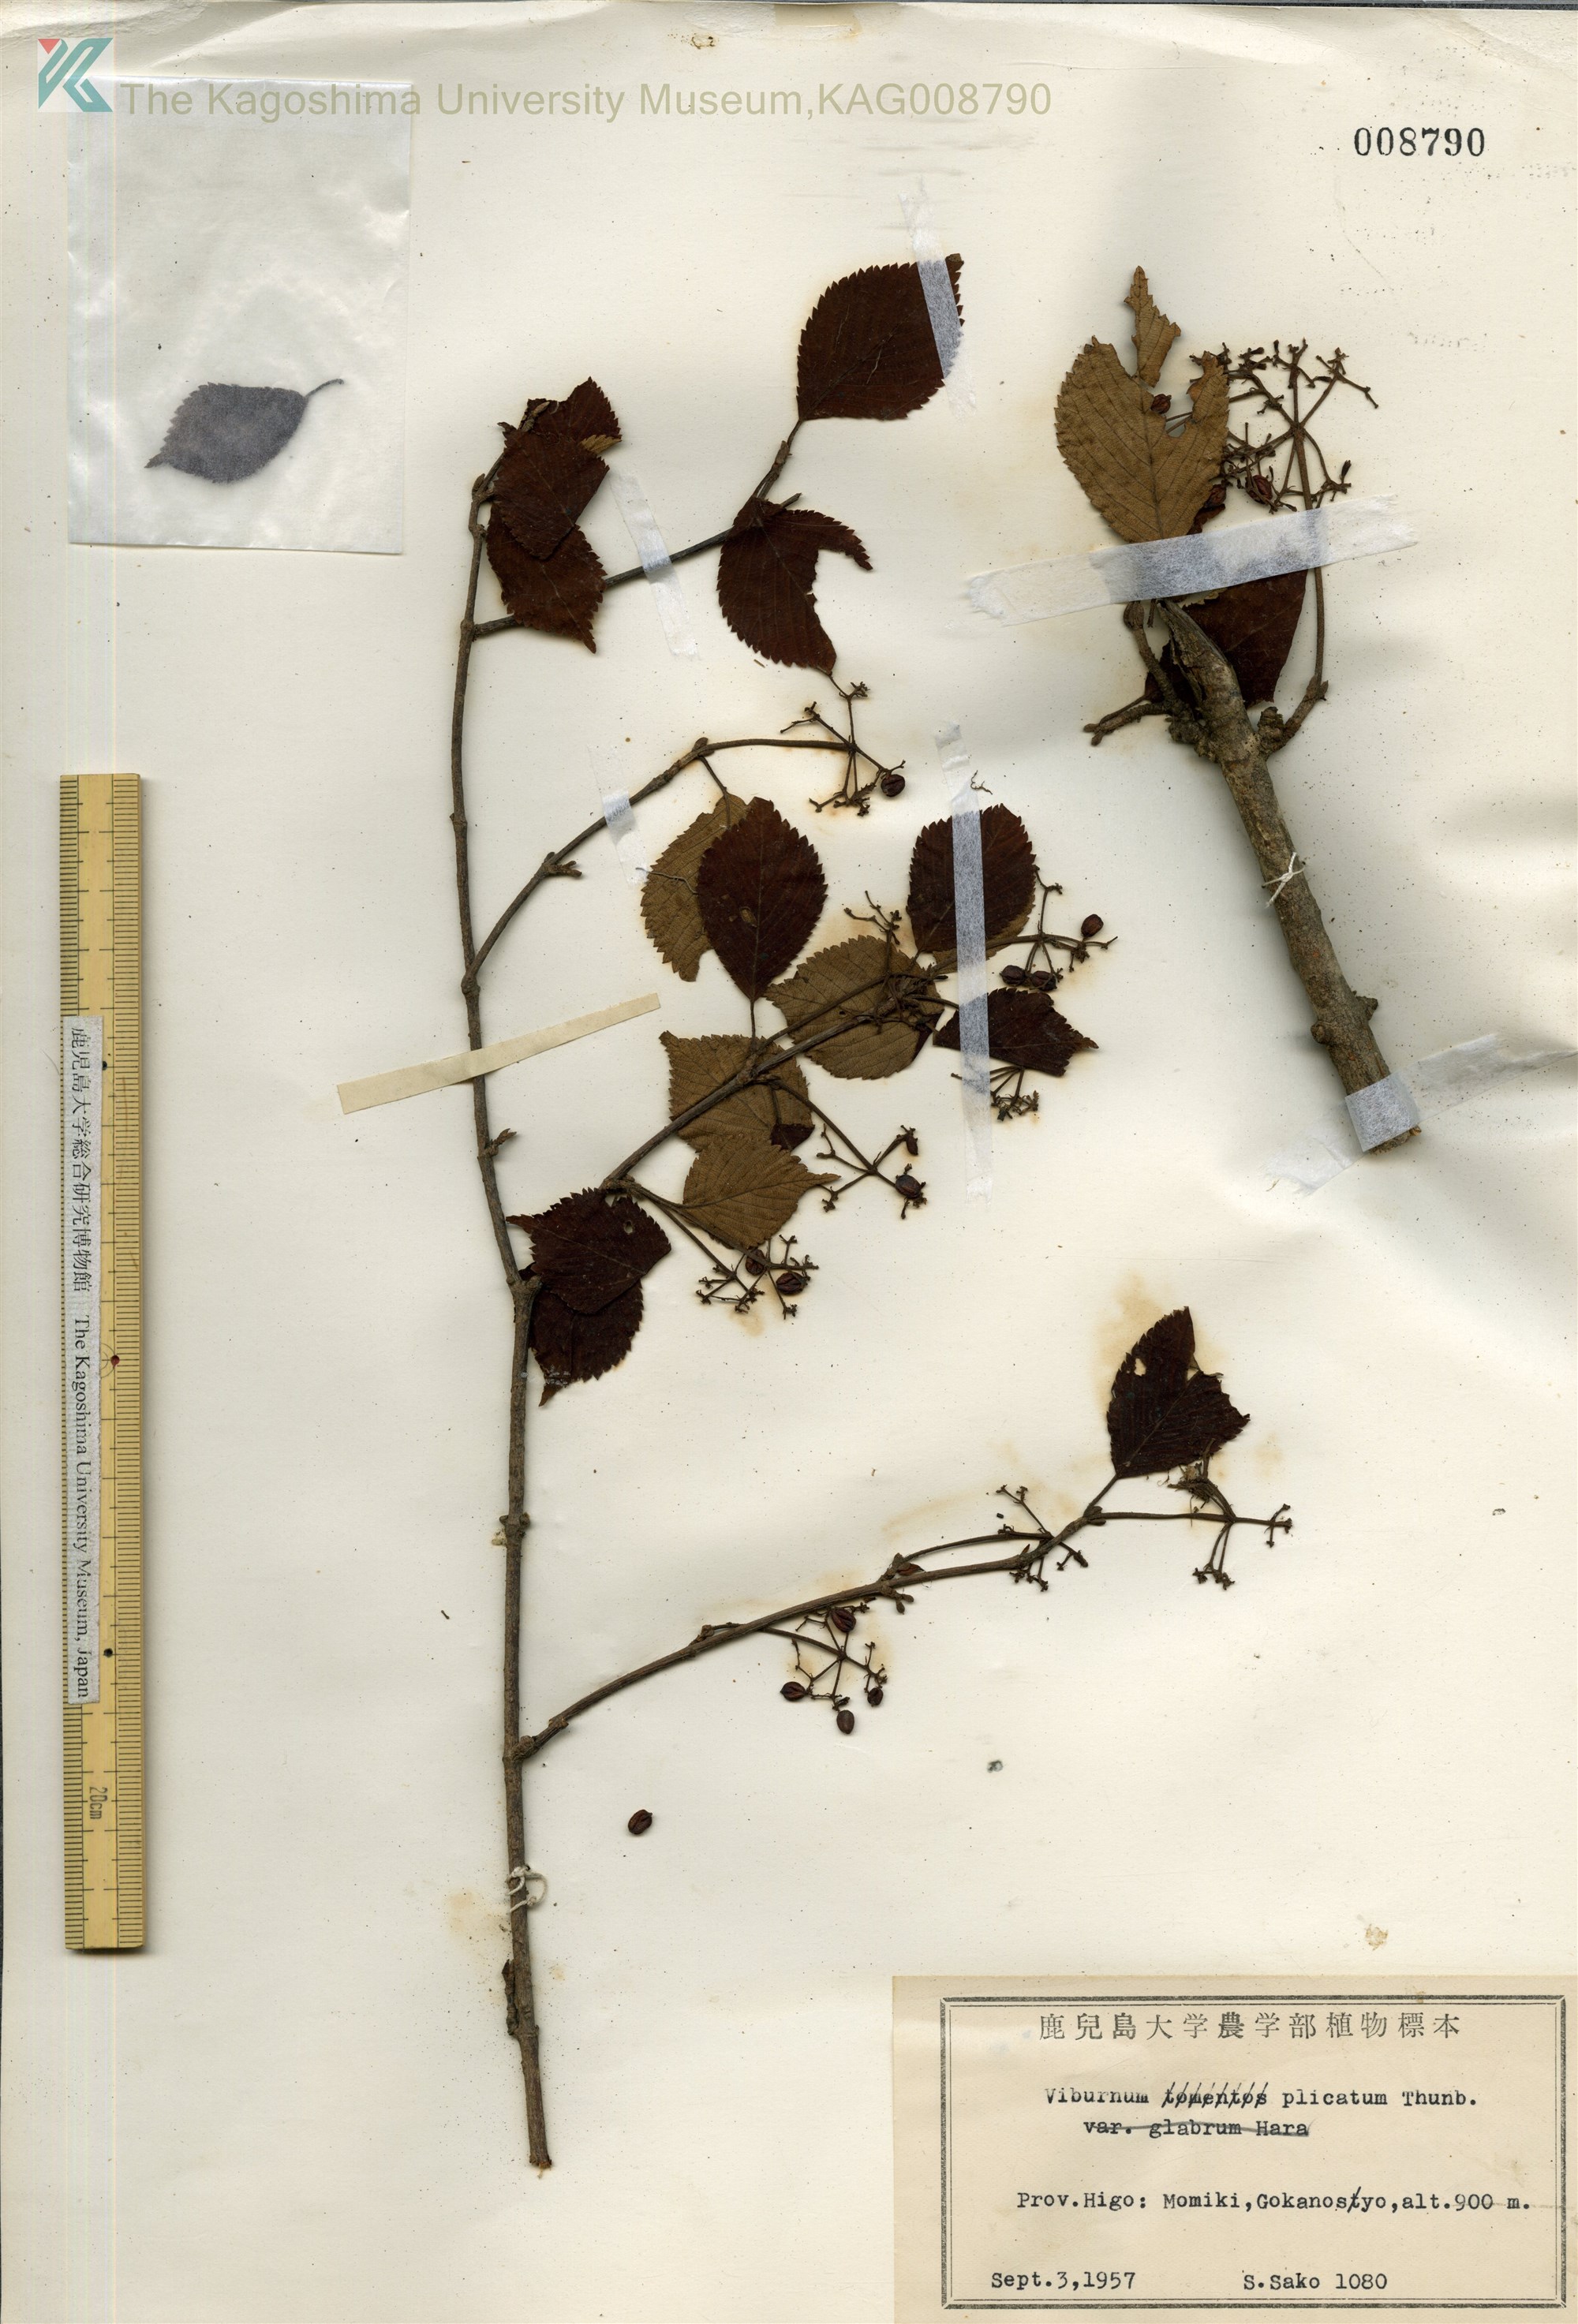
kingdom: Plantae
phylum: Tracheophyta
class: Magnoliopsida
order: Dipsacales
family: Viburnaceae
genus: Viburnum
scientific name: Viburnum plicatum
